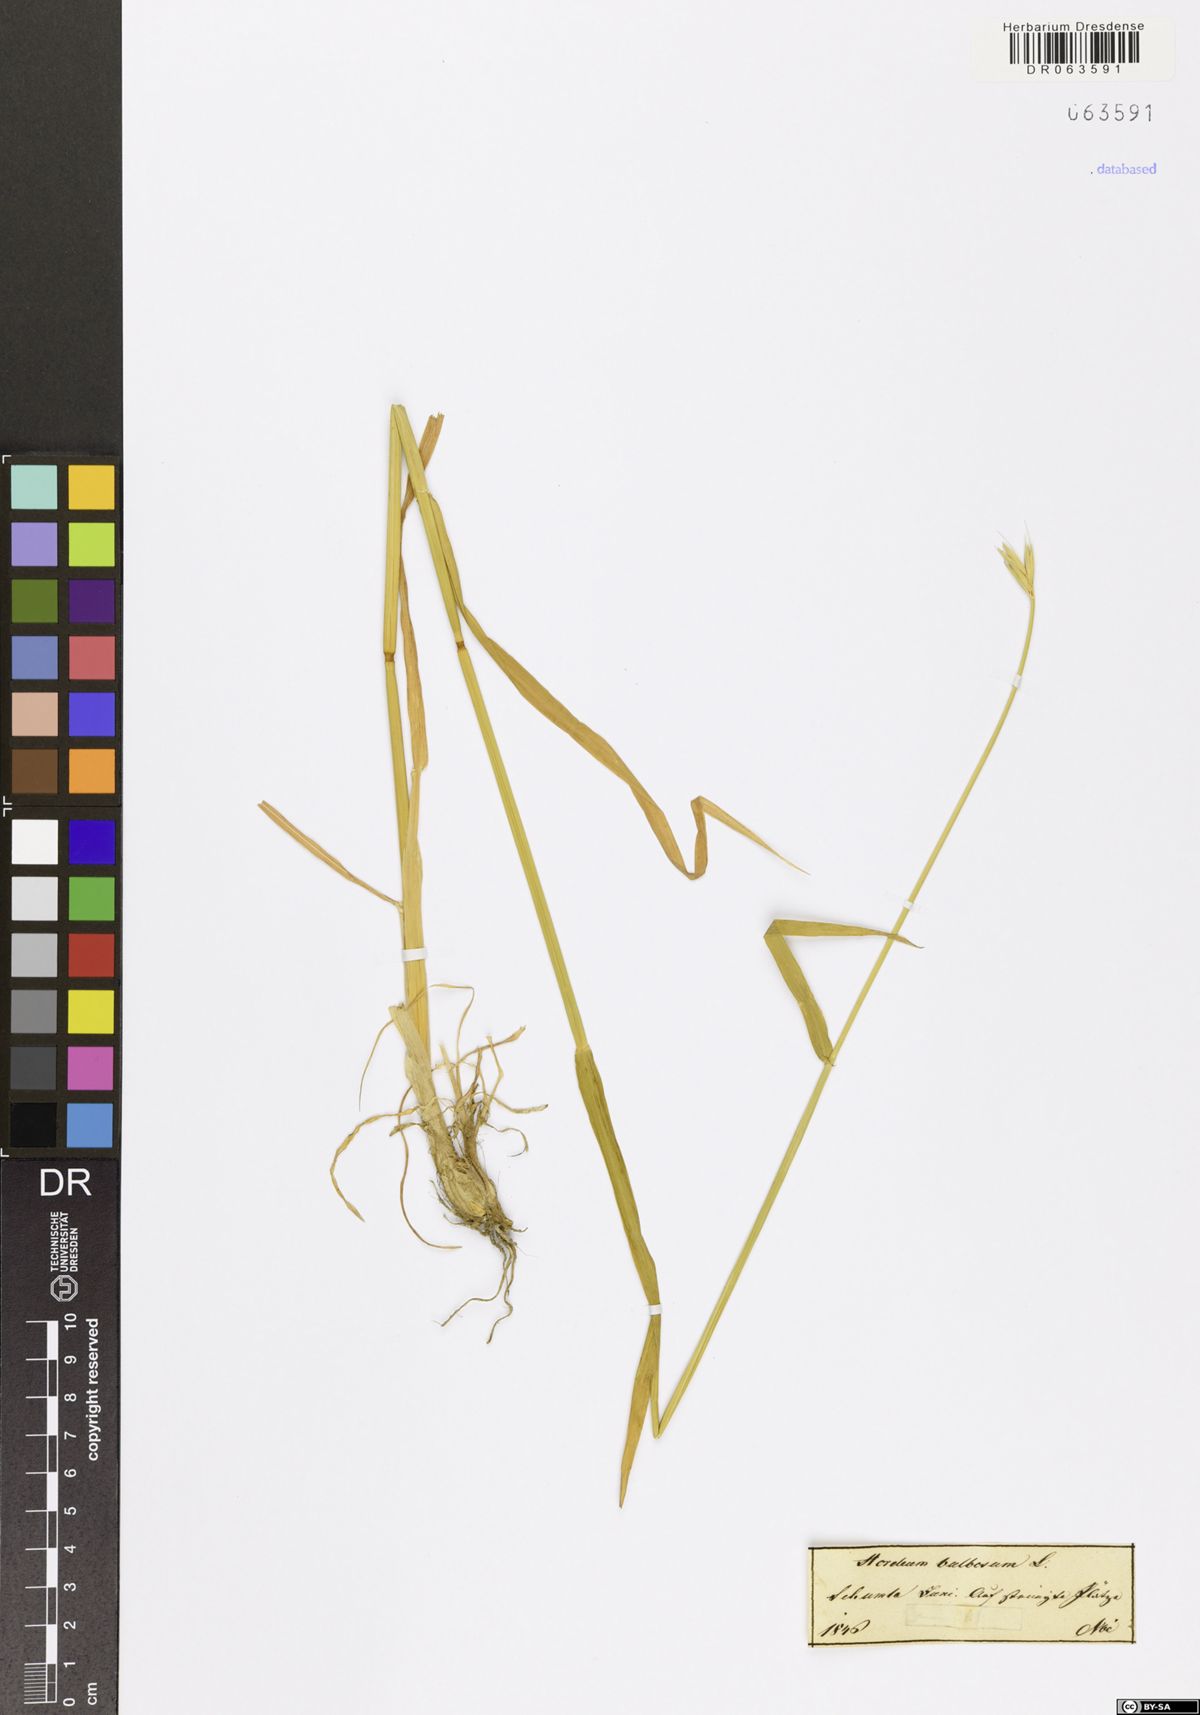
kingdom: Plantae
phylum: Tracheophyta
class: Liliopsida
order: Poales
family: Poaceae
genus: Hordeum
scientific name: Hordeum bulbosum
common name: Bulbous barley
